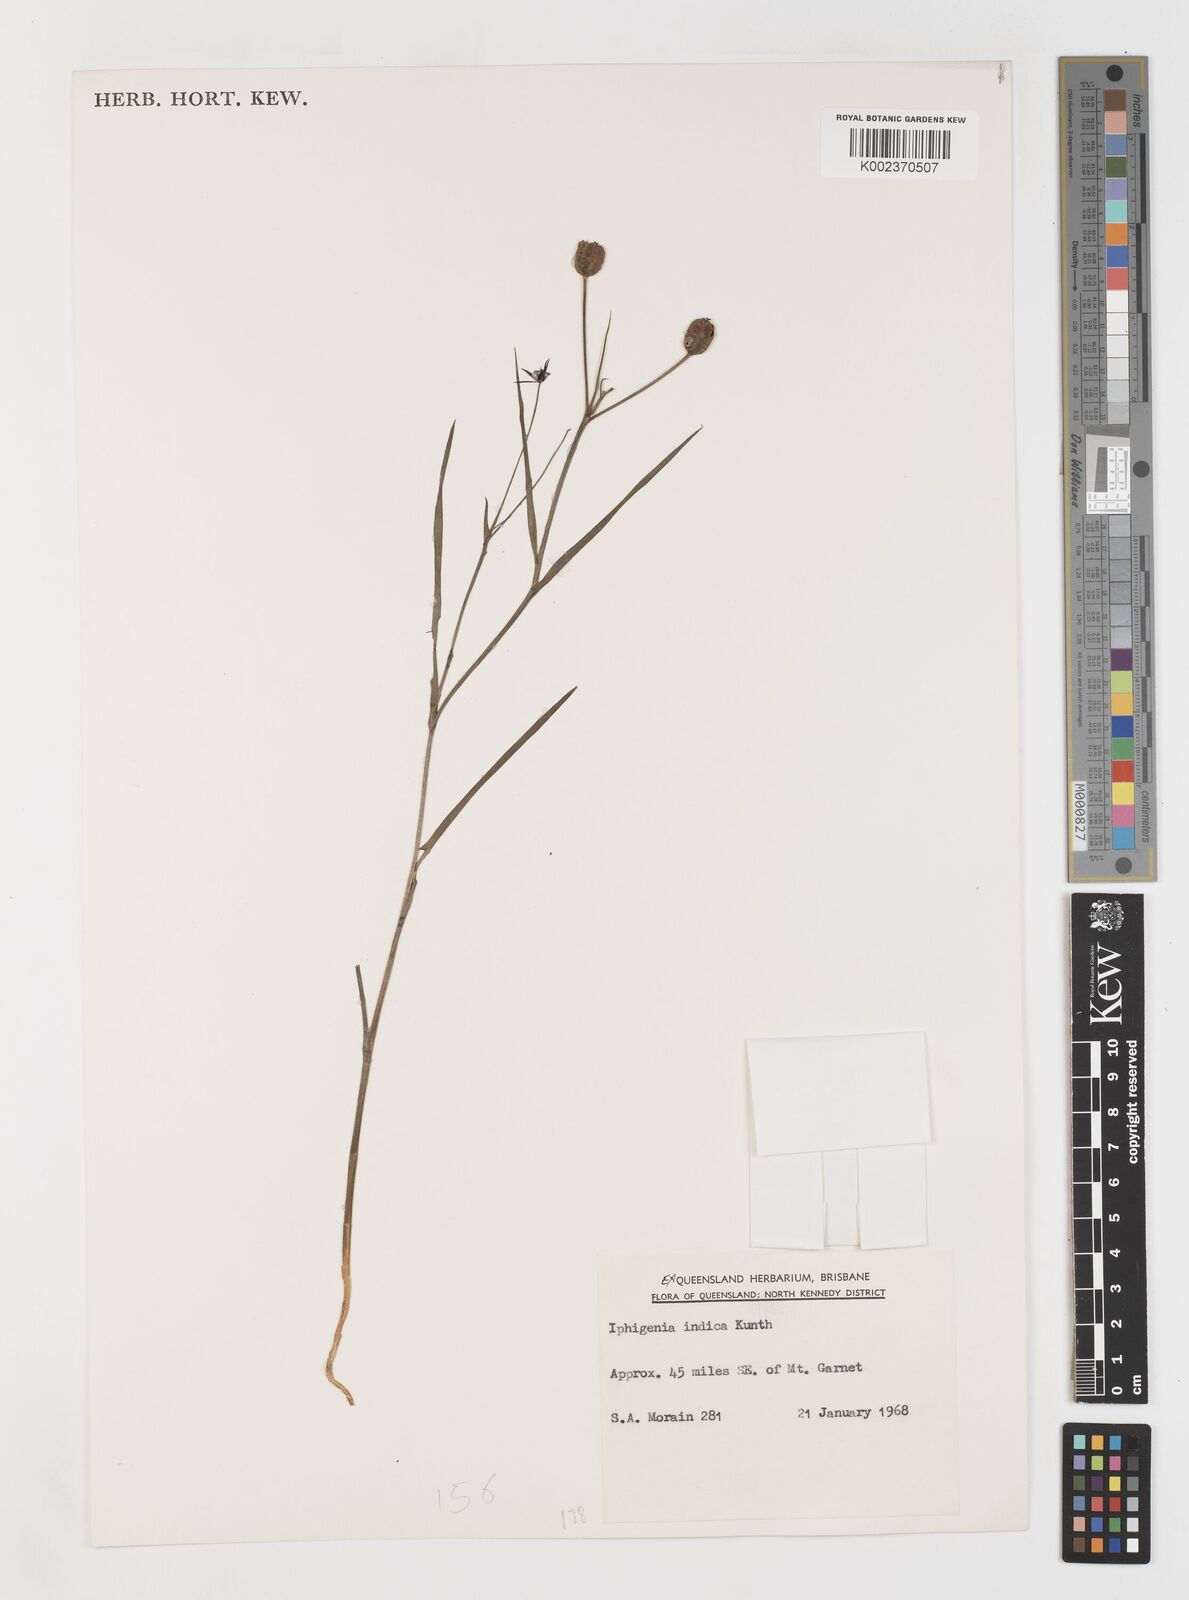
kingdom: Plantae
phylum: Tracheophyta
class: Liliopsida
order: Liliales
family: Colchicaceae
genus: Iphigenia
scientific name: Iphigenia indica
